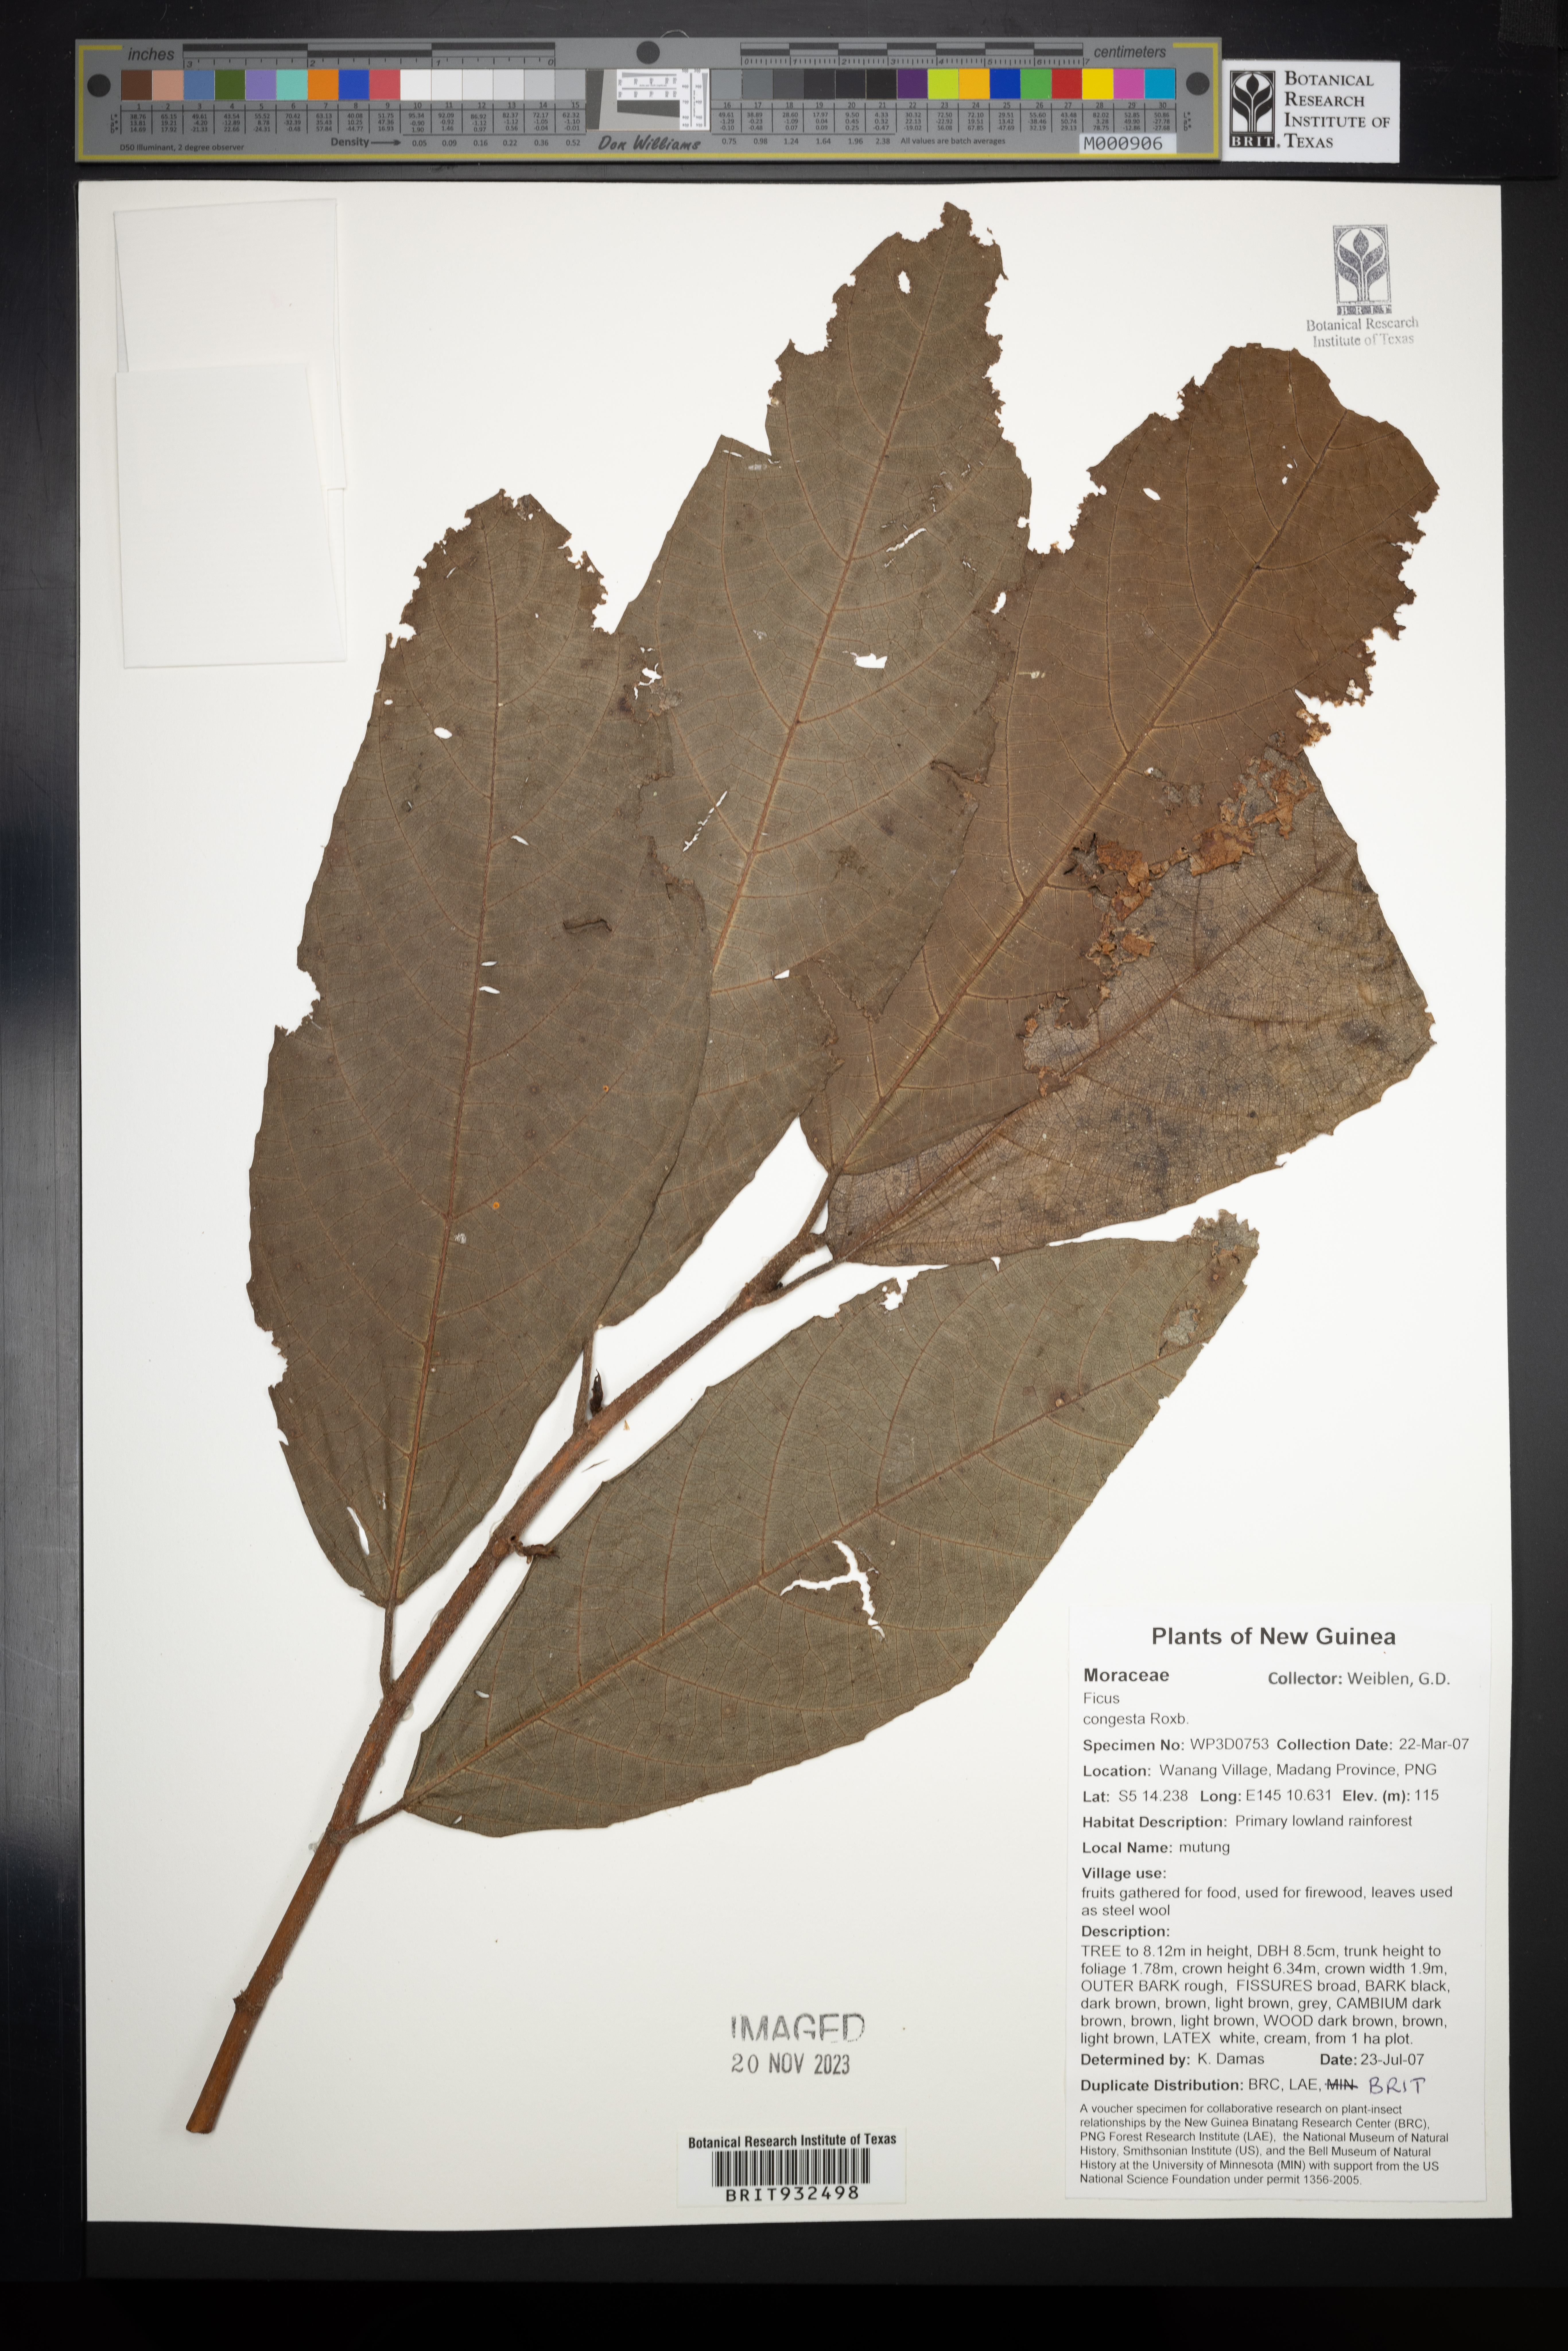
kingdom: Plantae
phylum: Tracheophyta
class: Magnoliopsida
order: Rosales
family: Moraceae
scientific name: Moraceae
